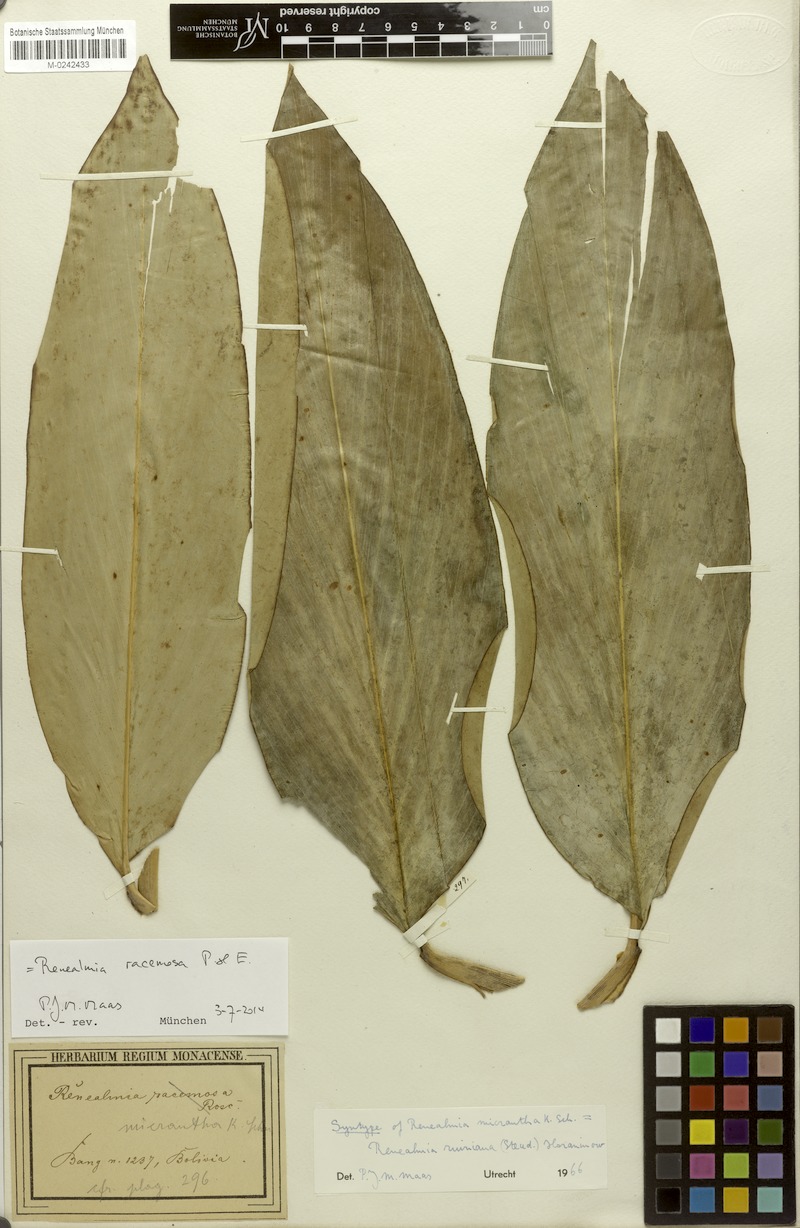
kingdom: Plantae
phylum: Tracheophyta
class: Liliopsida
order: Zingiberales
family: Zingiberaceae
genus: Renealmia
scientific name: Renealmia racemosa
